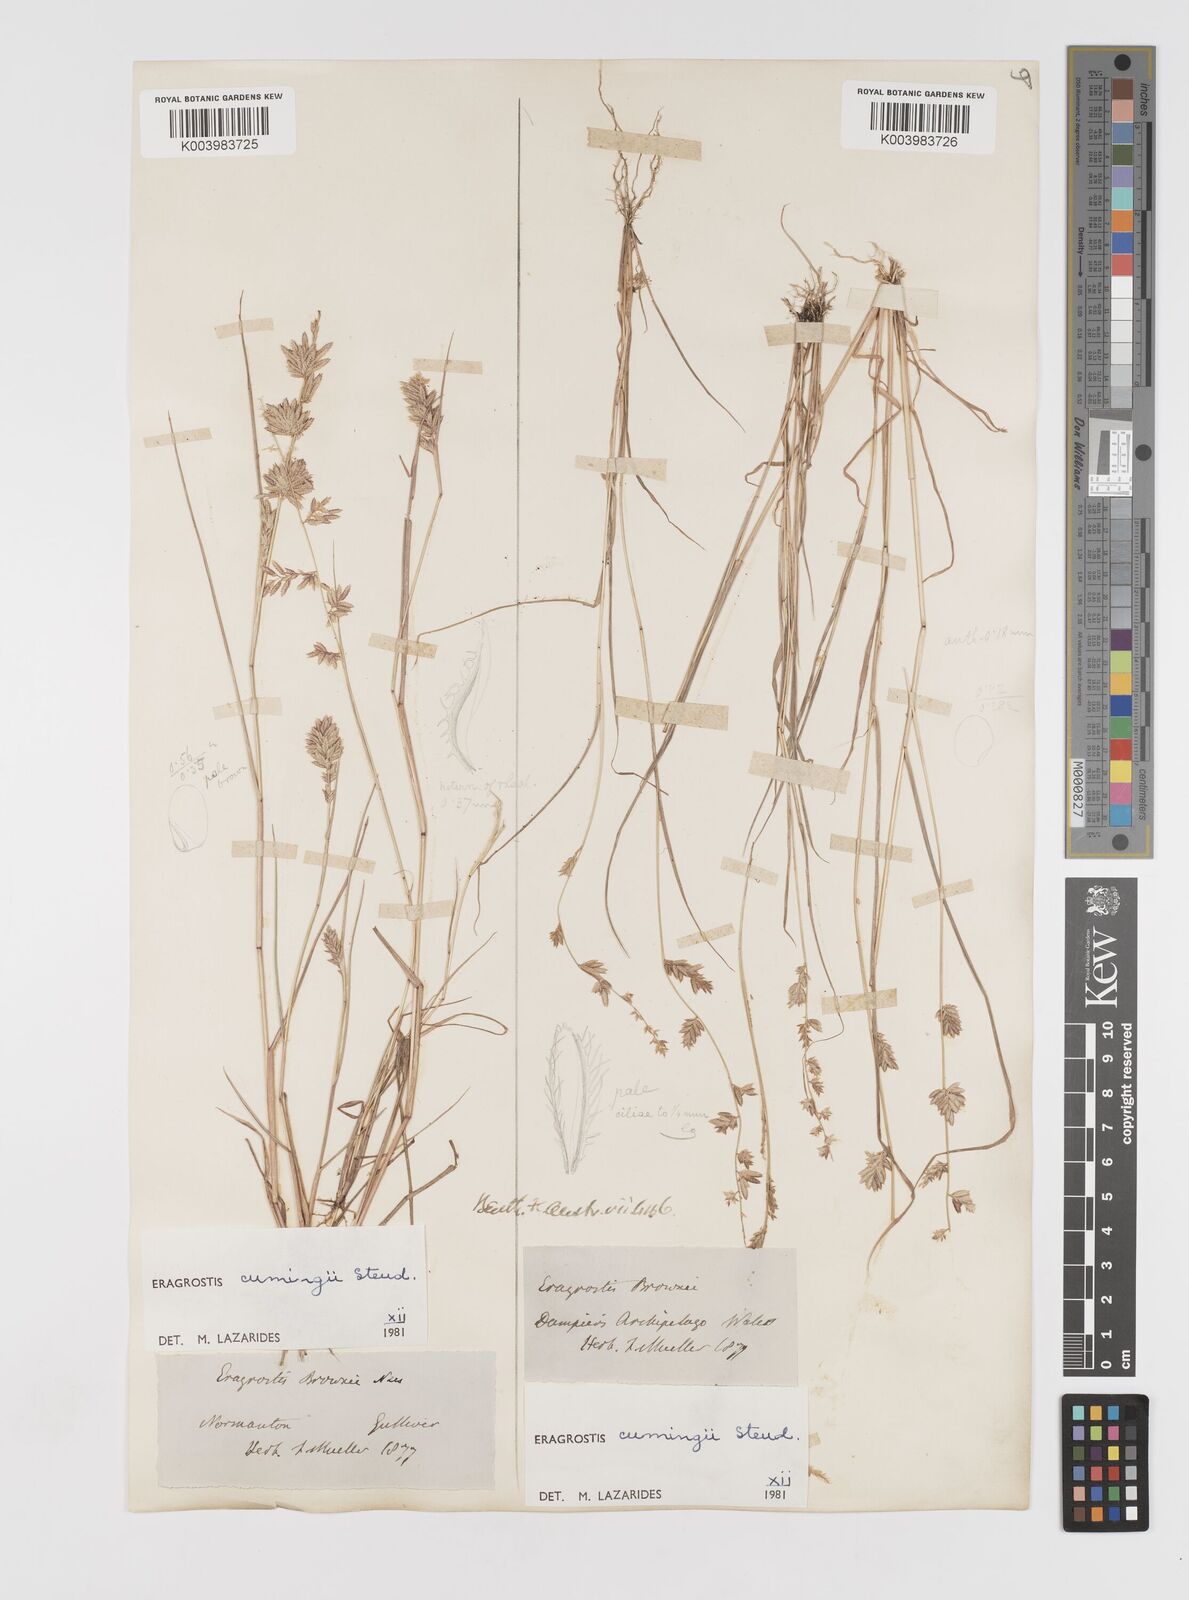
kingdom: Plantae
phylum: Tracheophyta
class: Liliopsida
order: Poales
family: Poaceae
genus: Eragrostis
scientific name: Eragrostis cumingii
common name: Cuming's lovegrass
